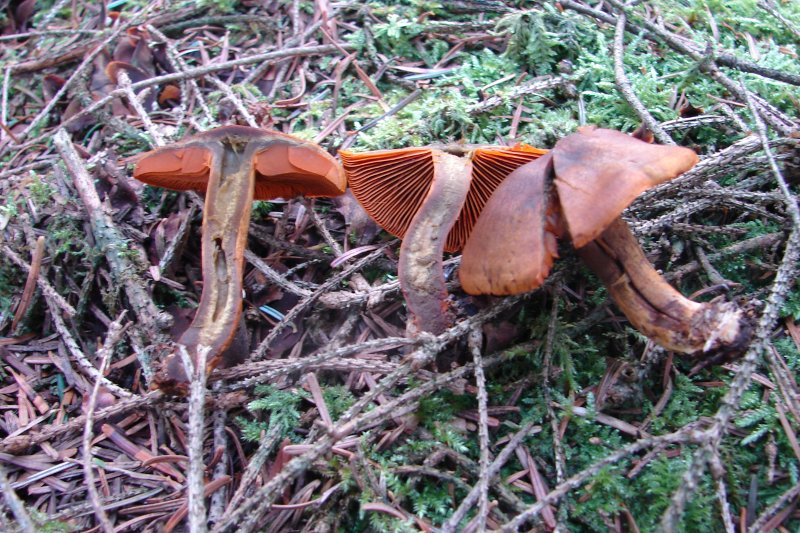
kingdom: Fungi
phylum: Basidiomycota
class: Agaricomycetes
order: Agaricales
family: Cortinariaceae
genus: Cortinarius
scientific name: Cortinarius malicorius
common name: grønkødet slørhat
